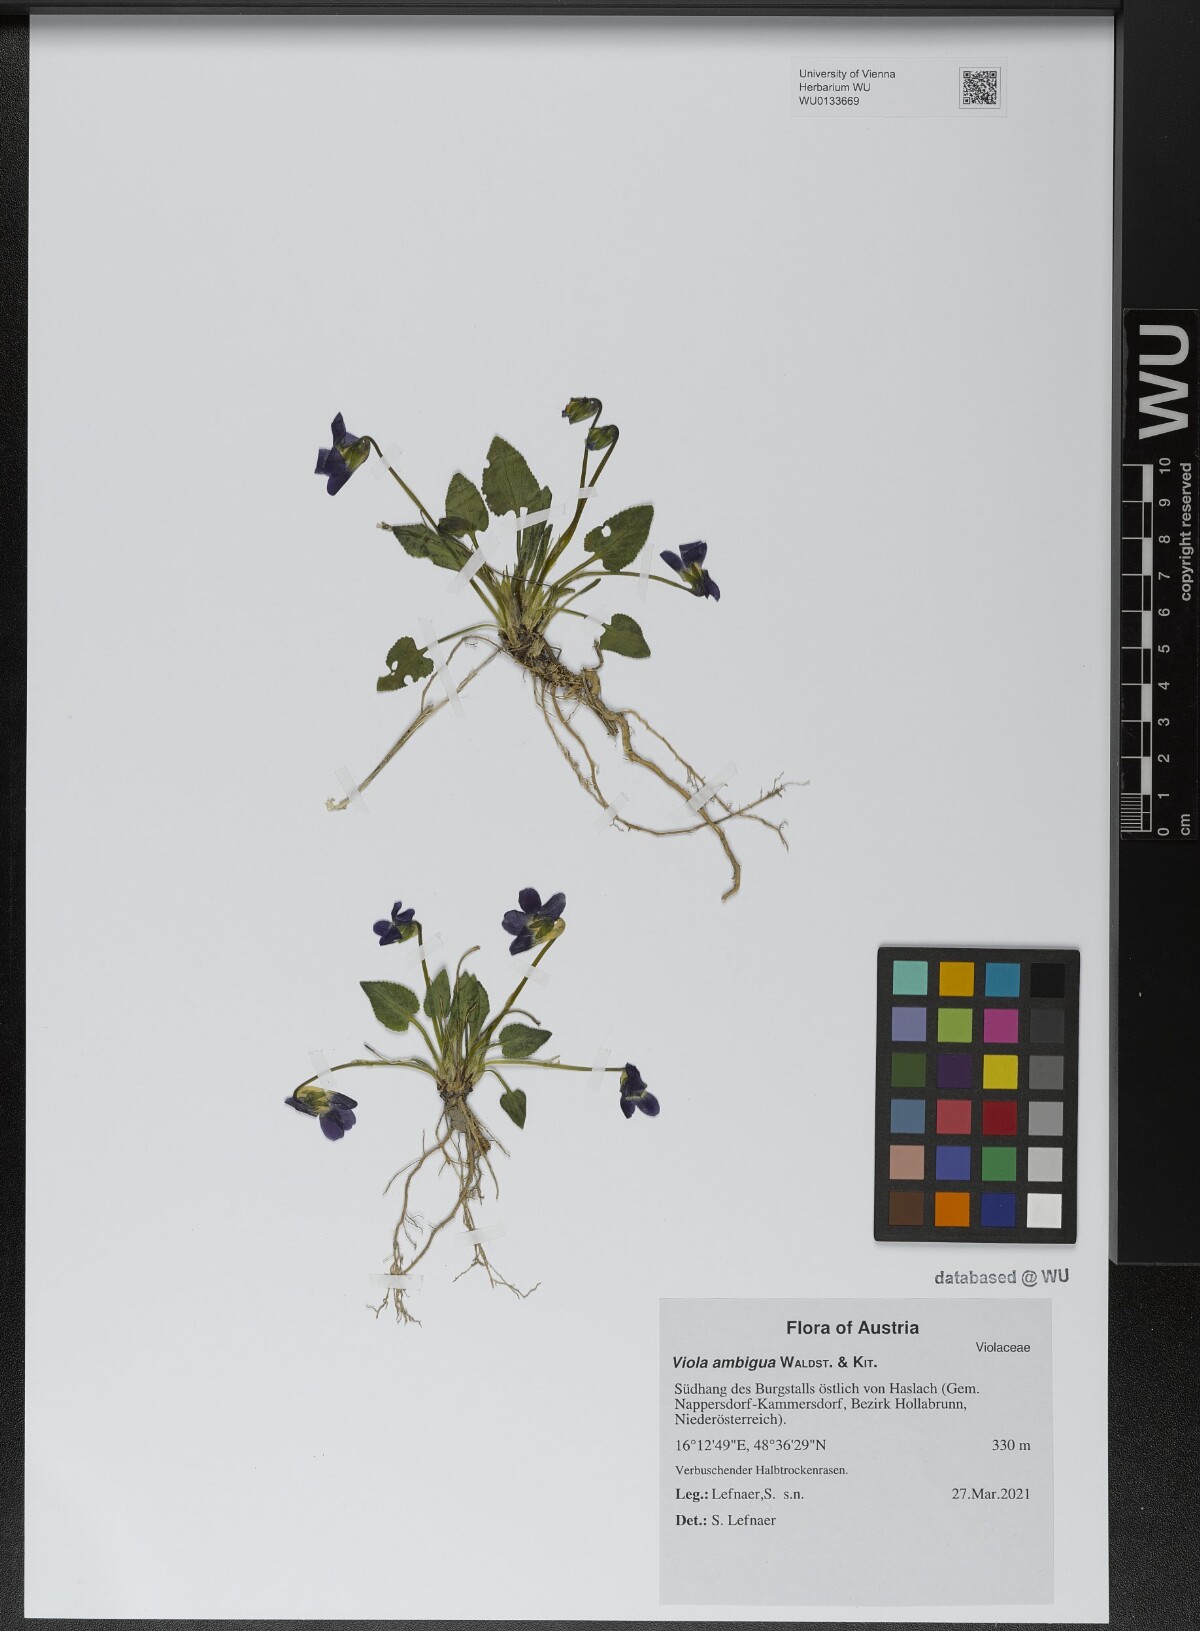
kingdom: Plantae
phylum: Tracheophyta
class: Magnoliopsida
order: Malpighiales
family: Violaceae
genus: Viola
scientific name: Viola ambigua
